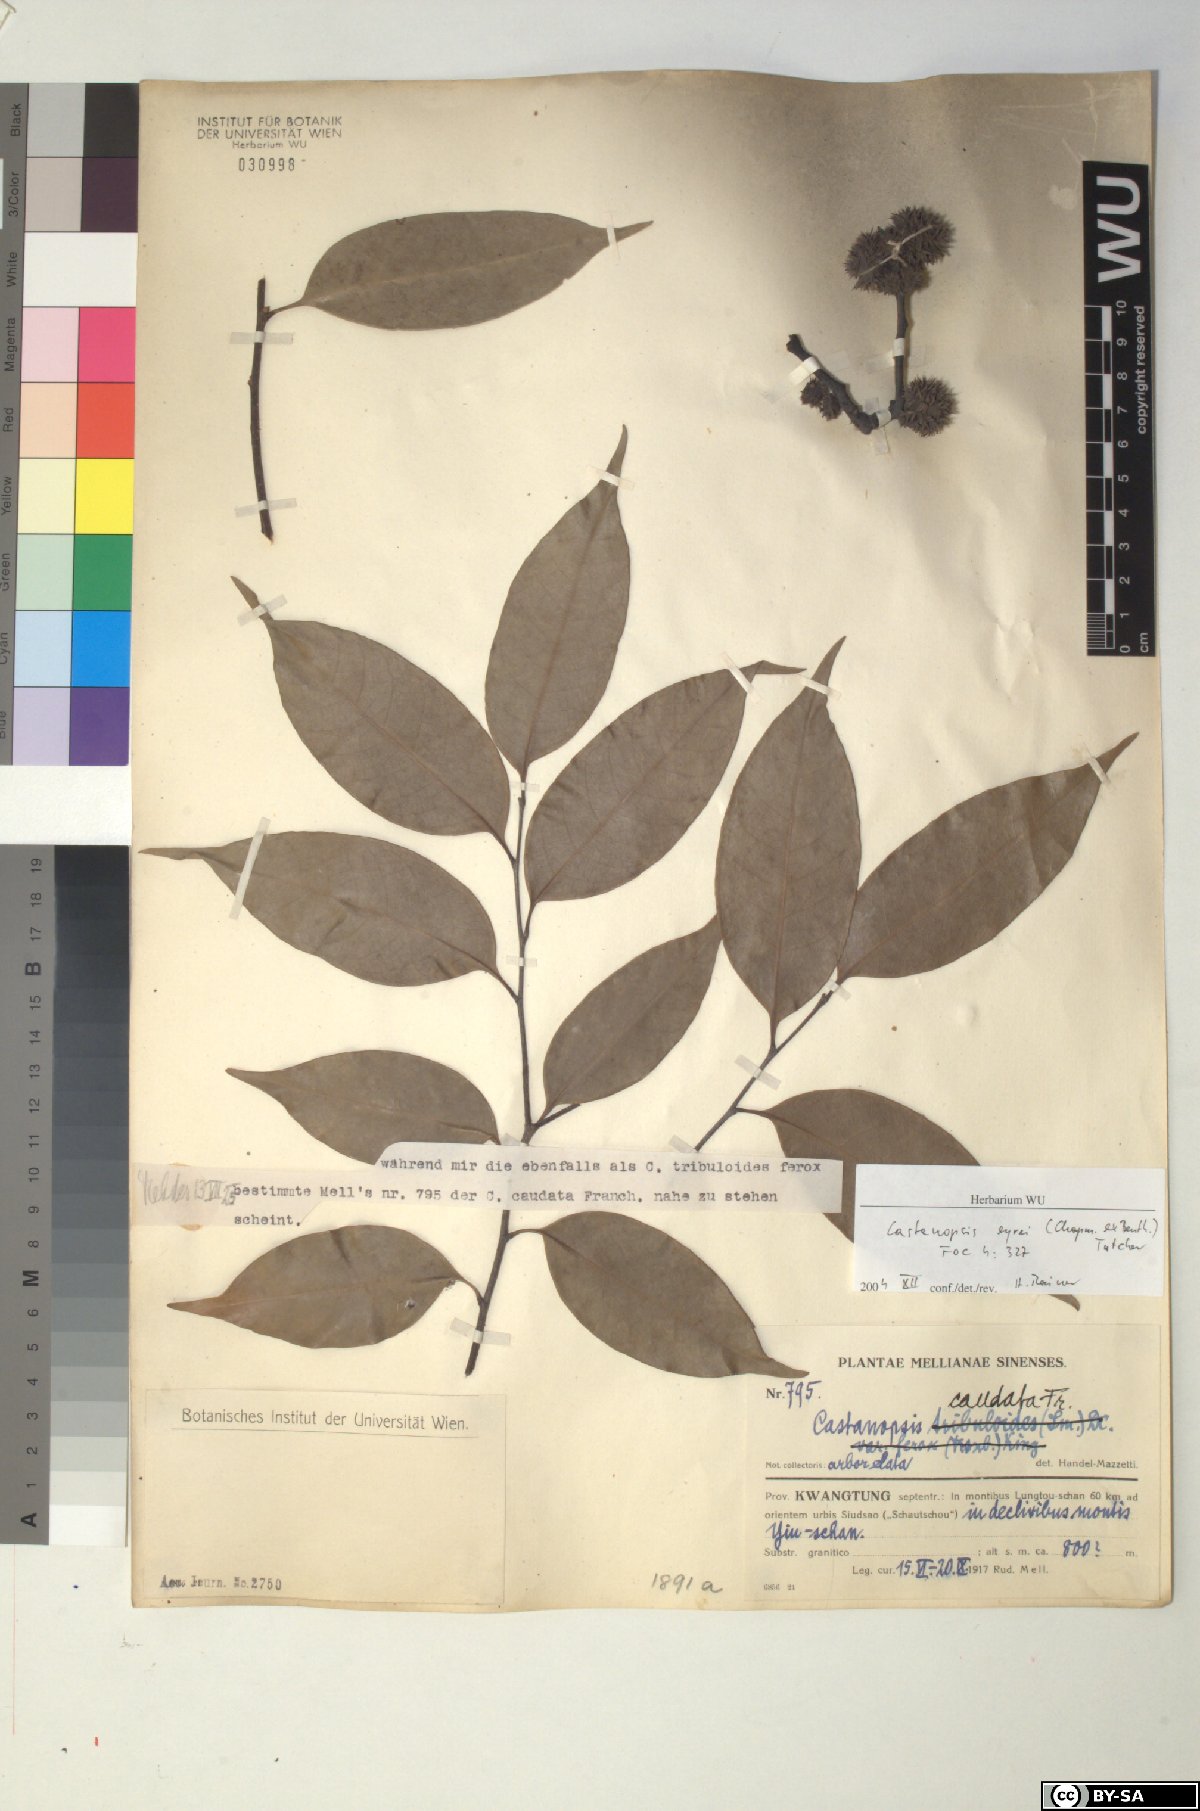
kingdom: Plantae
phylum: Tracheophyta
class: Magnoliopsida
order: Fagales
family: Fagaceae
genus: Castanopsis
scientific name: Castanopsis eyrei
